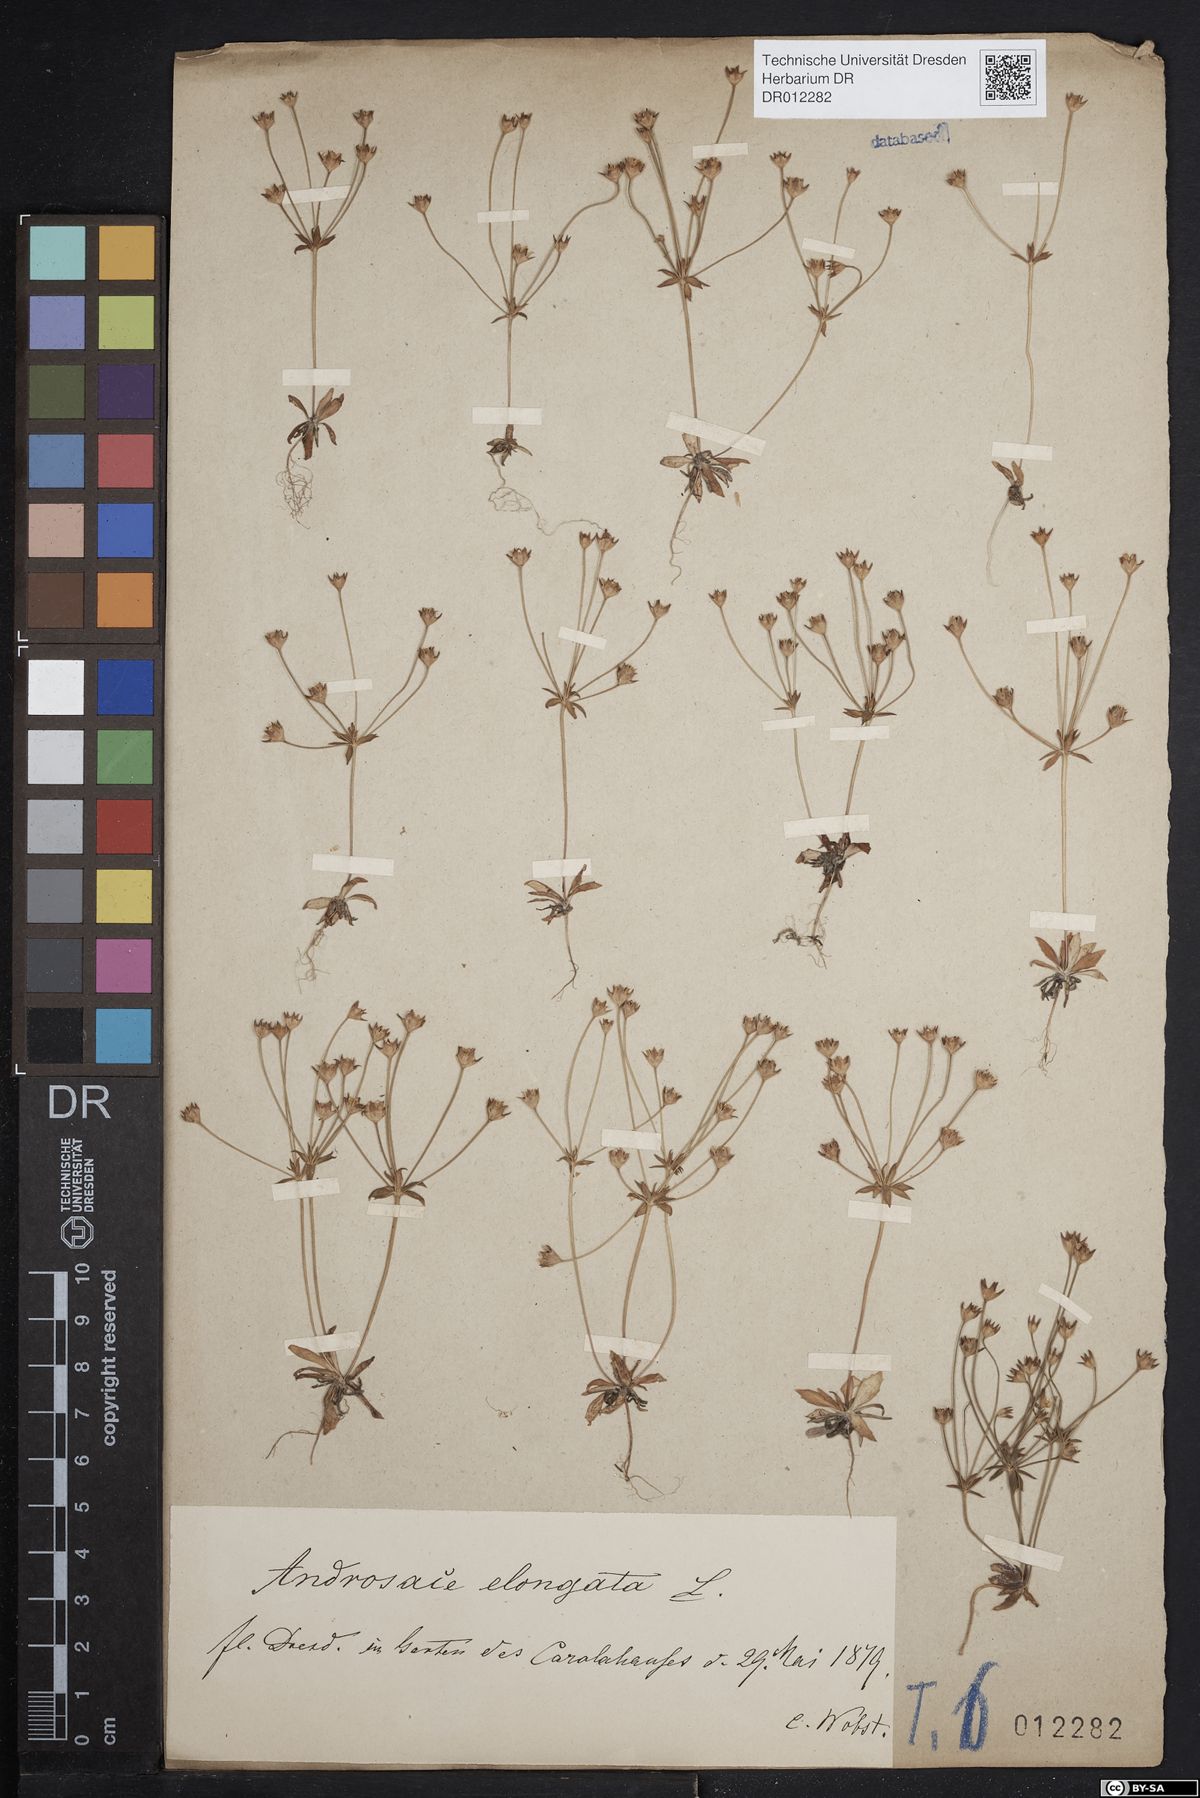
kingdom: Plantae
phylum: Tracheophyta
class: Magnoliopsida
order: Ericales
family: Primulaceae
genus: Androsace
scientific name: Androsace elongata
